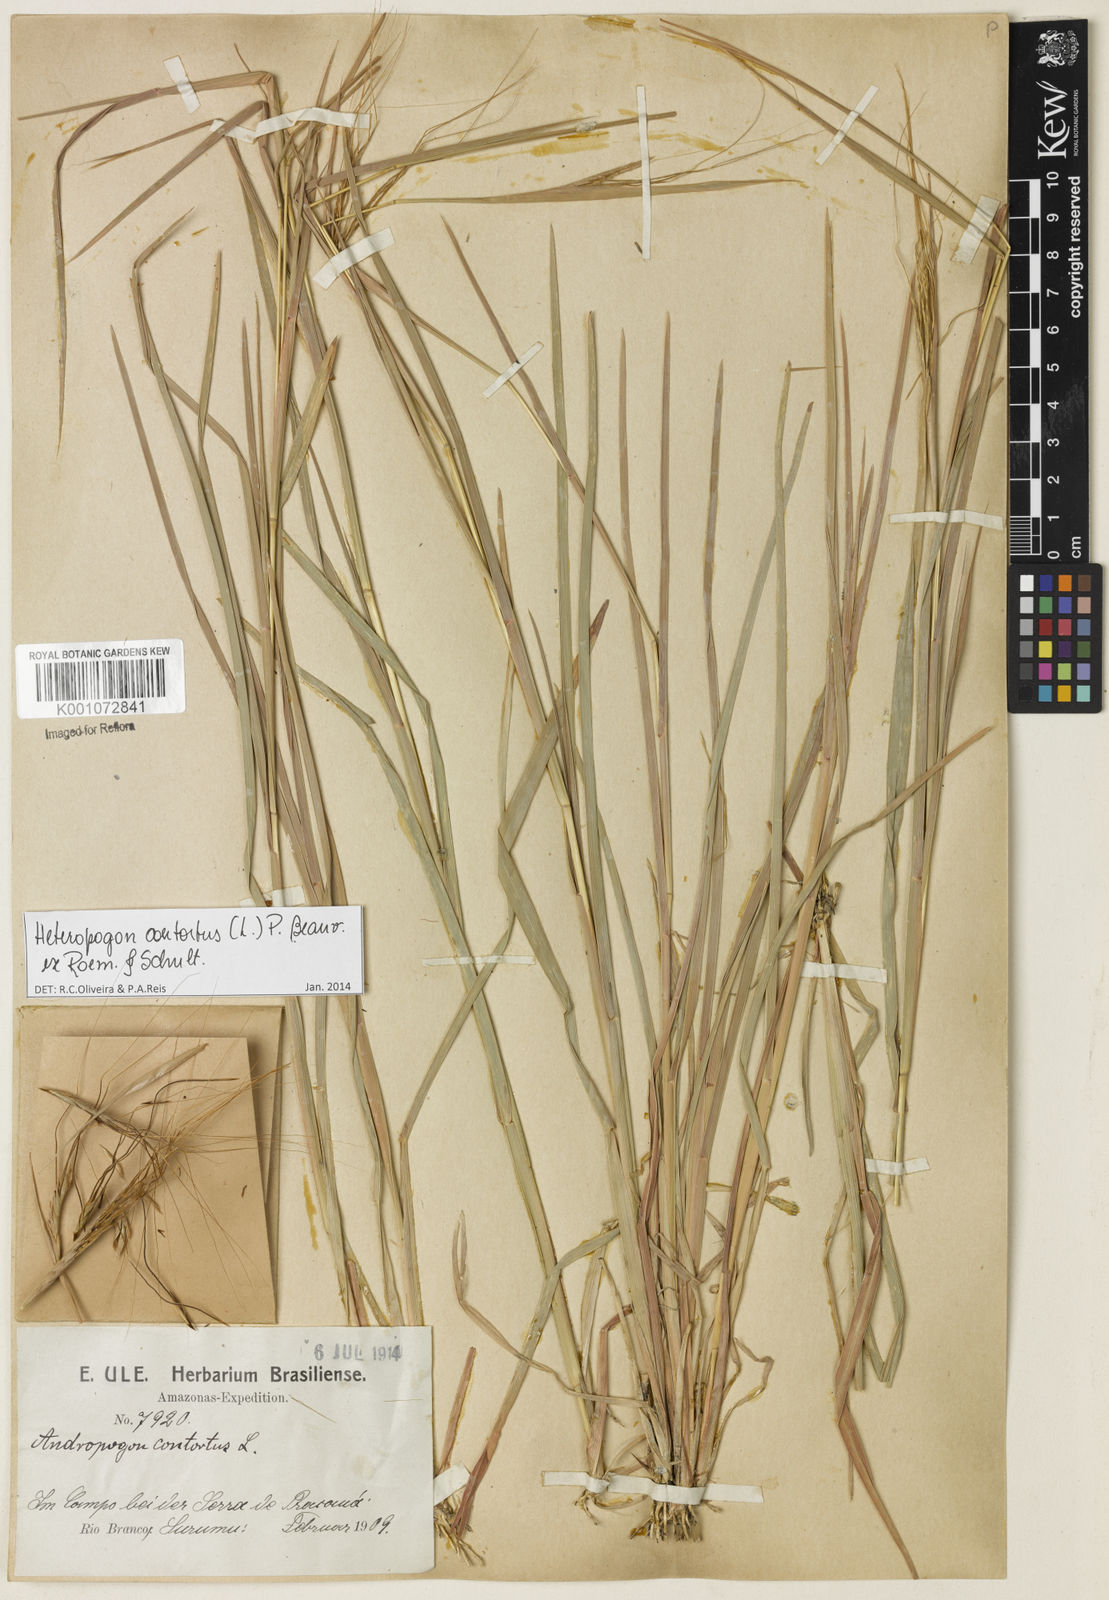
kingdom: Plantae
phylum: Tracheophyta
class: Liliopsida
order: Poales
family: Poaceae
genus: Heteropogon
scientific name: Heteropogon contortus
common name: Tanglehead
